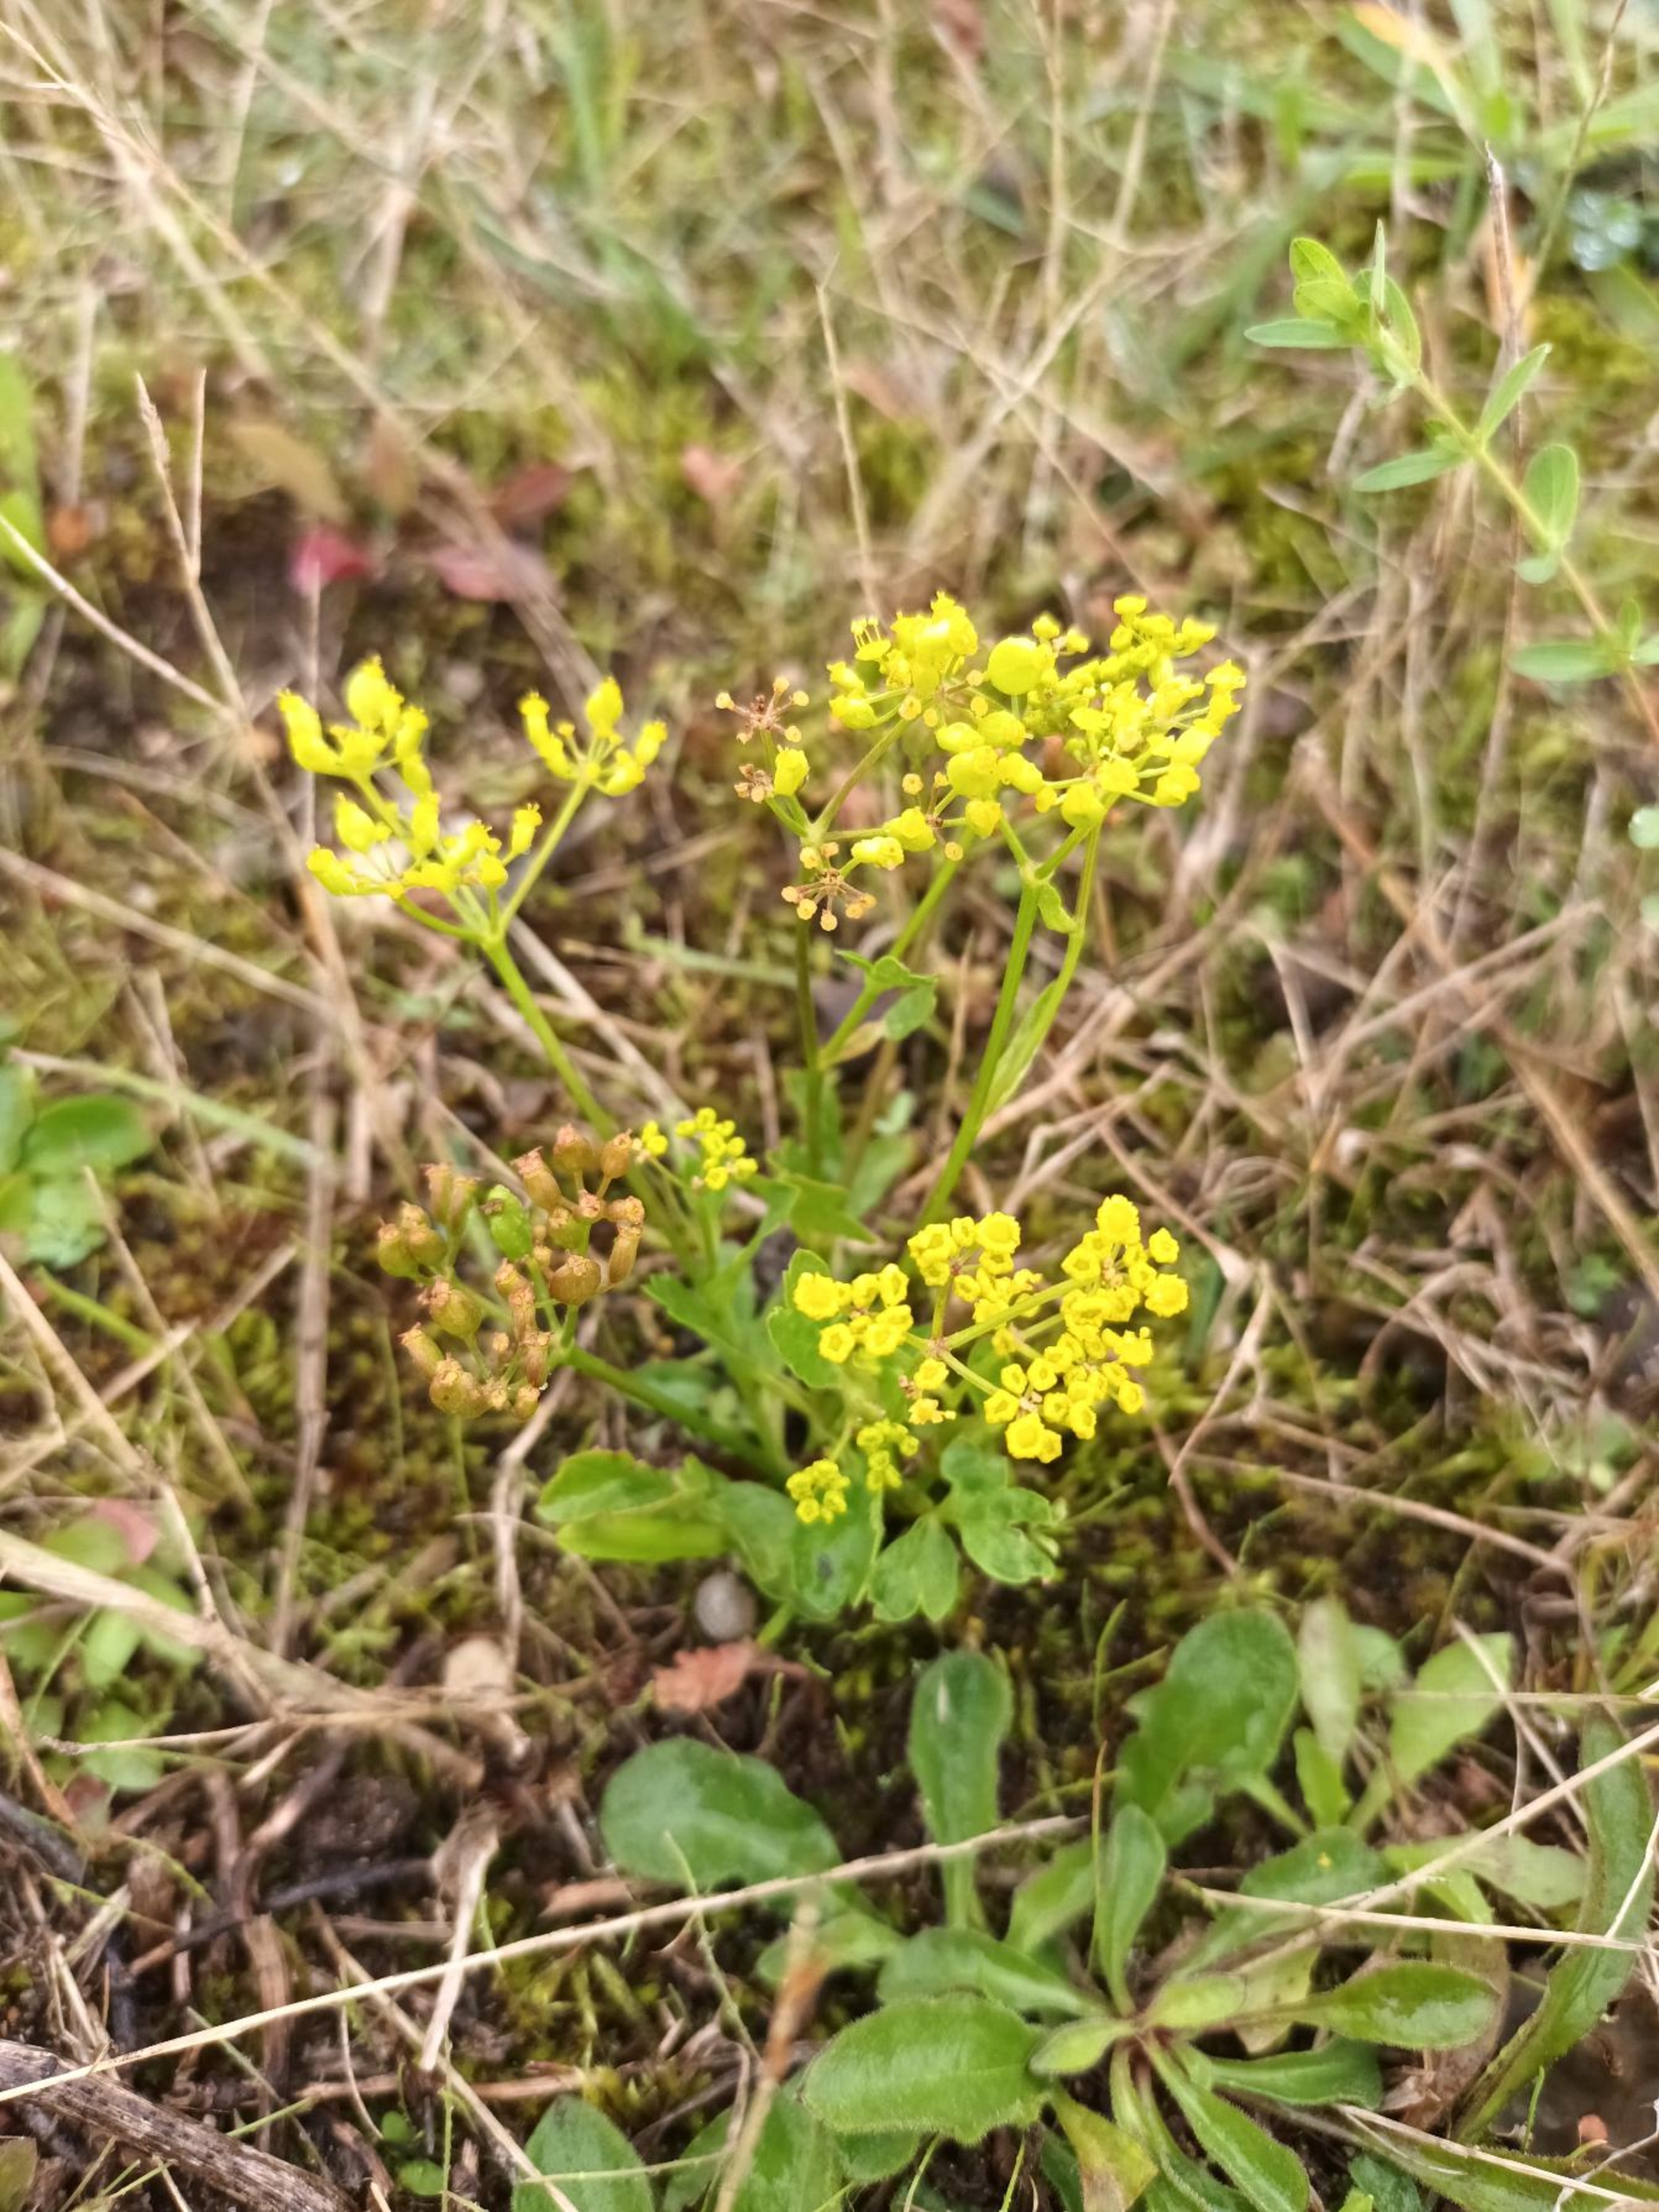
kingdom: Plantae
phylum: Tracheophyta
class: Magnoliopsida
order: Apiales
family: Apiaceae
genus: Pastinaca
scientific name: Pastinaca sativa
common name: Vild pastinak
